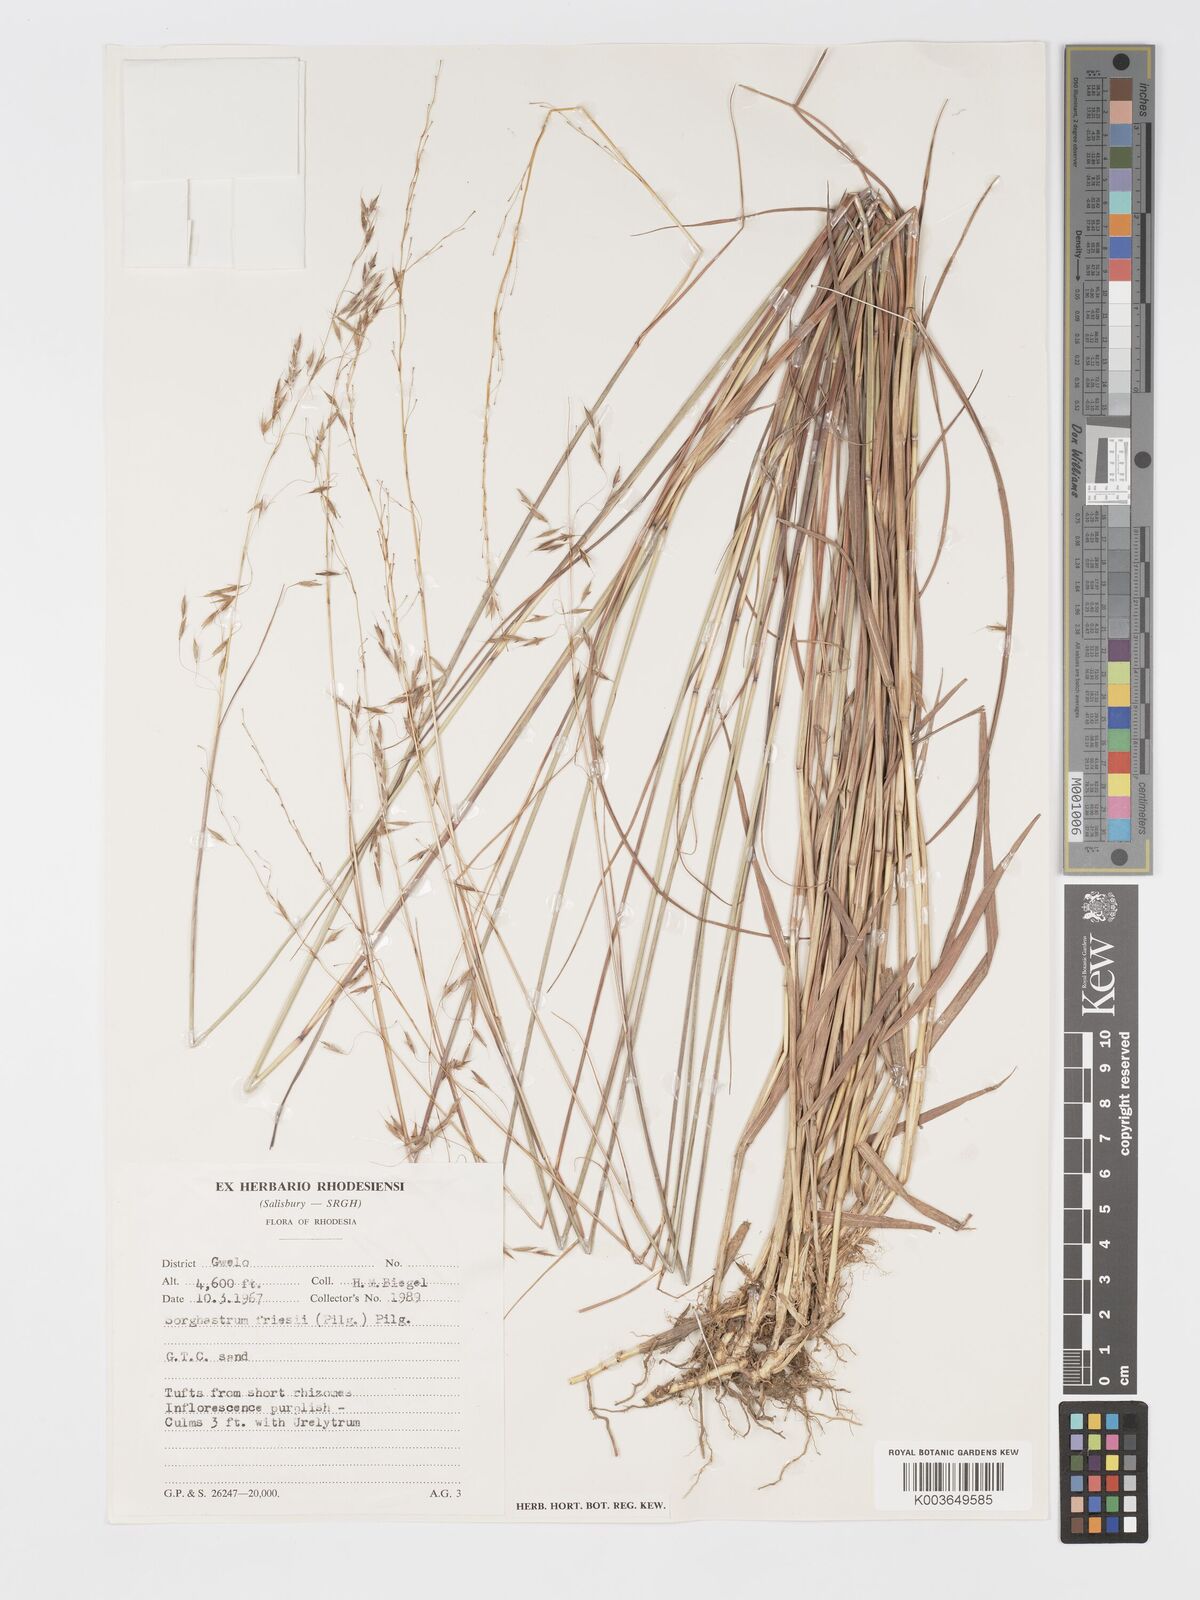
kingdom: Plantae
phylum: Tracheophyta
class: Liliopsida
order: Poales
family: Poaceae
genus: Sorghastrum
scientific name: Sorghastrum nudipes
